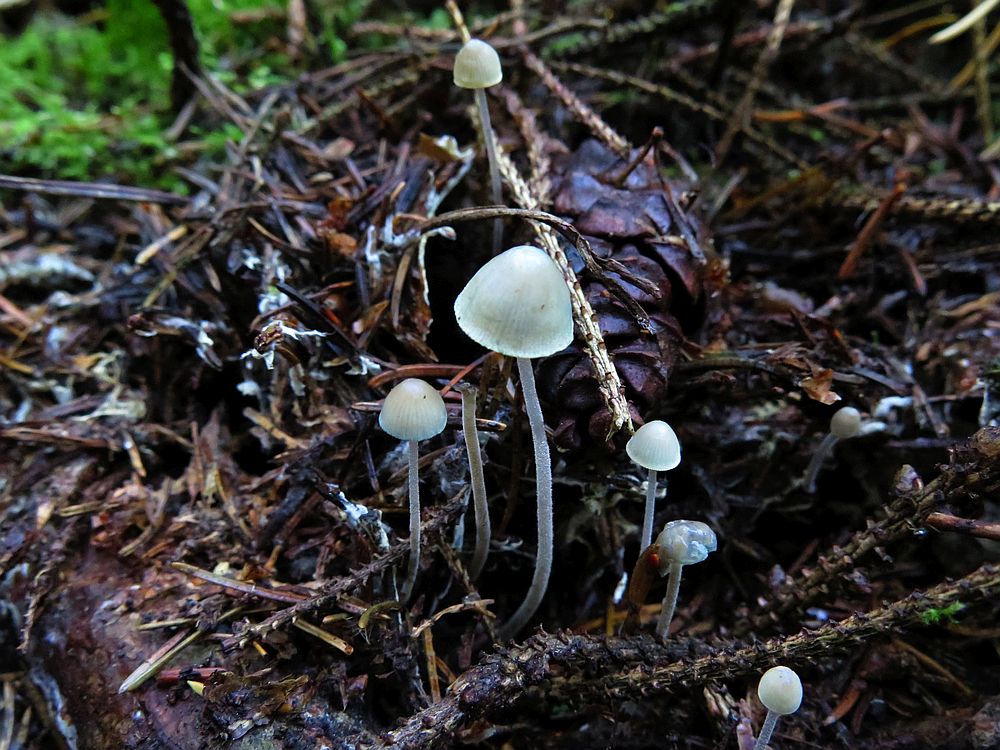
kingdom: Fungi
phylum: Basidiomycota
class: Agaricomycetes
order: Agaricales
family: Mycenaceae
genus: Mycena
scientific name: Mycena amicta
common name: iris-huesvamp
